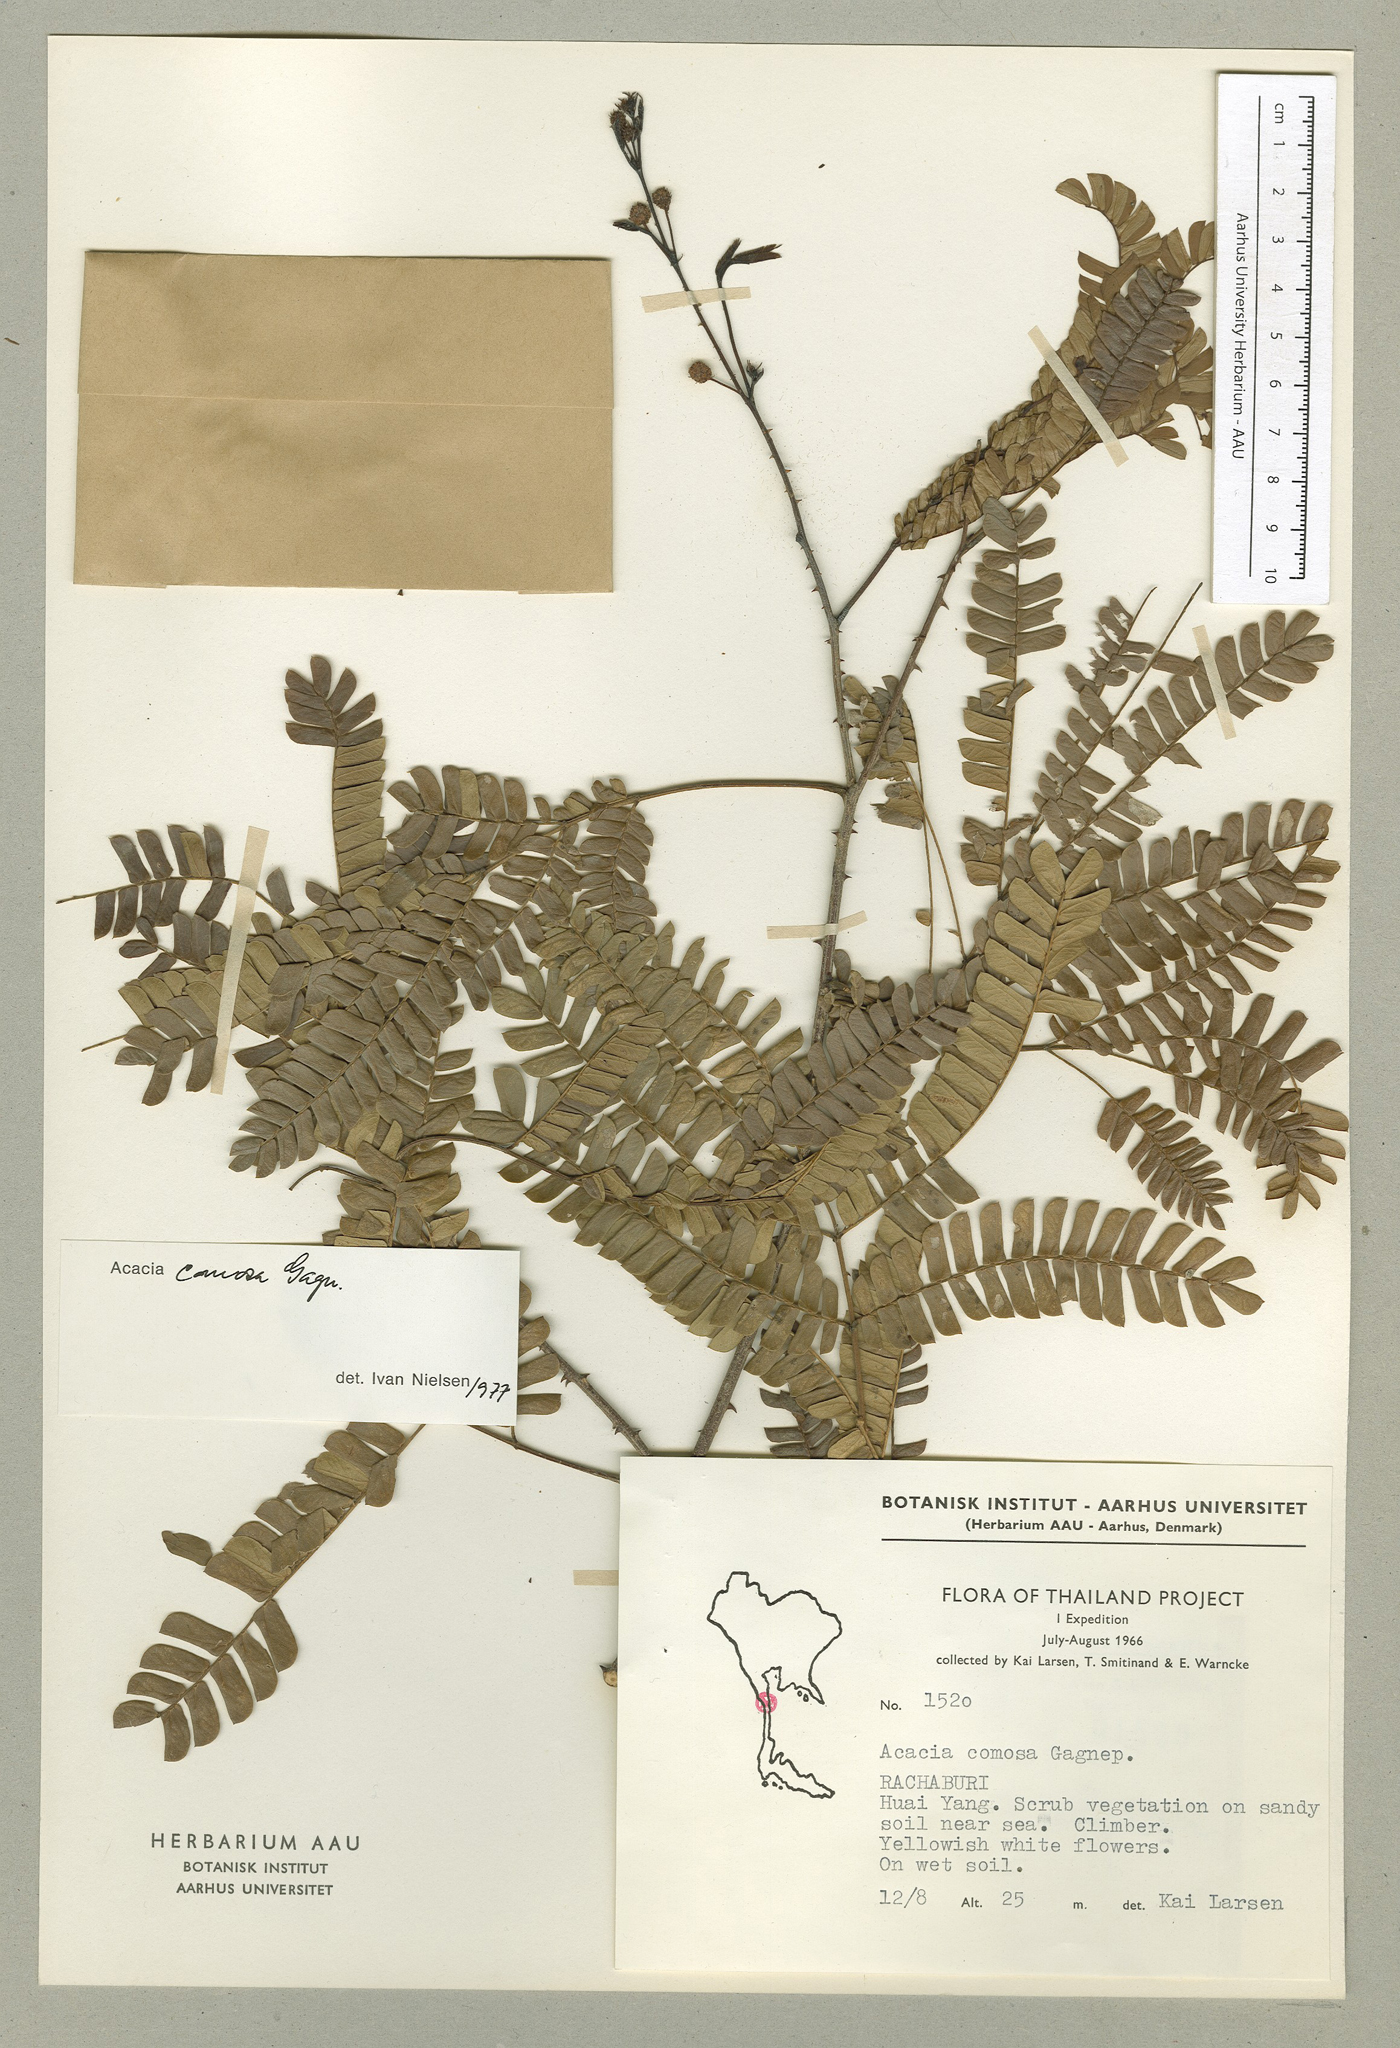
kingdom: Plantae
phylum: Tracheophyta
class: Magnoliopsida
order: Fabales
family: Fabaceae
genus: Senegalia
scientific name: Senegalia comosa
